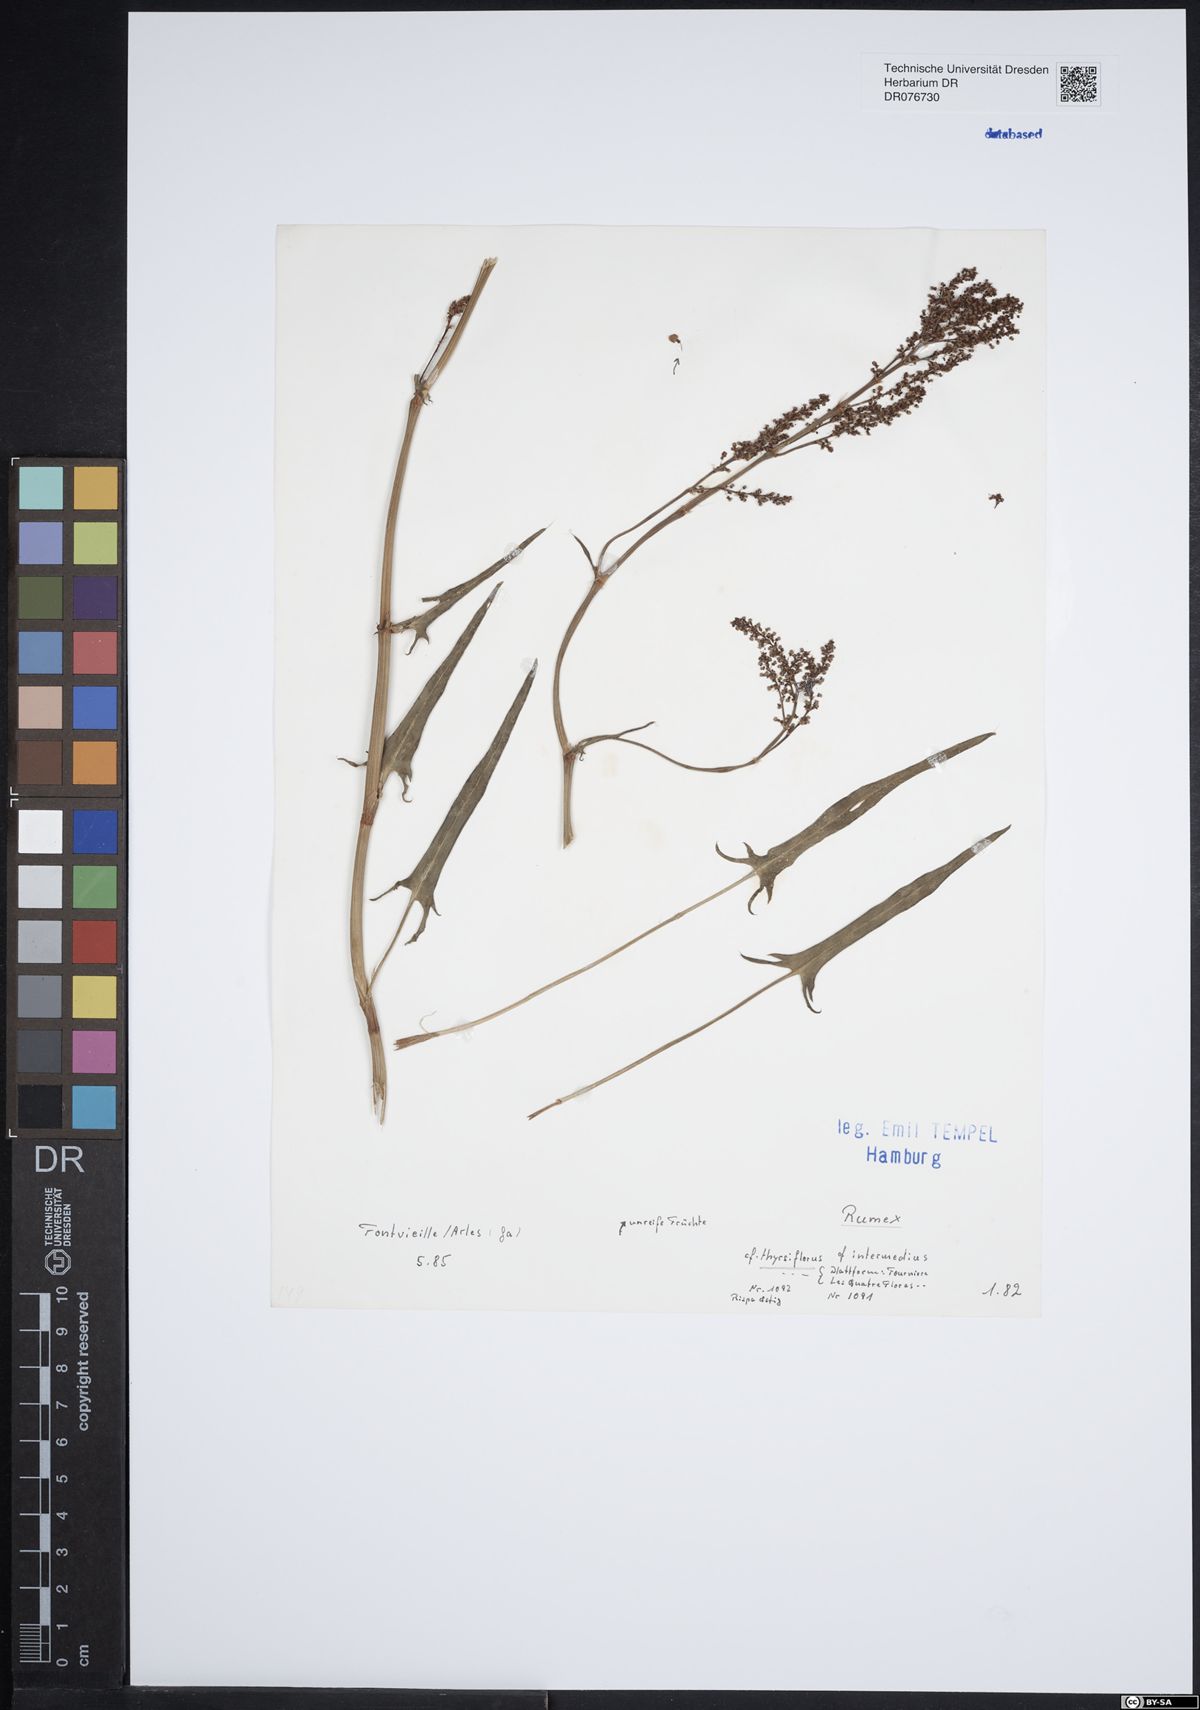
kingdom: Plantae
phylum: Tracheophyta
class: Magnoliopsida
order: Caryophyllales
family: Polygonaceae
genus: Rumex
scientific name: Rumex thyrsiflorus
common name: Garden sorrel
